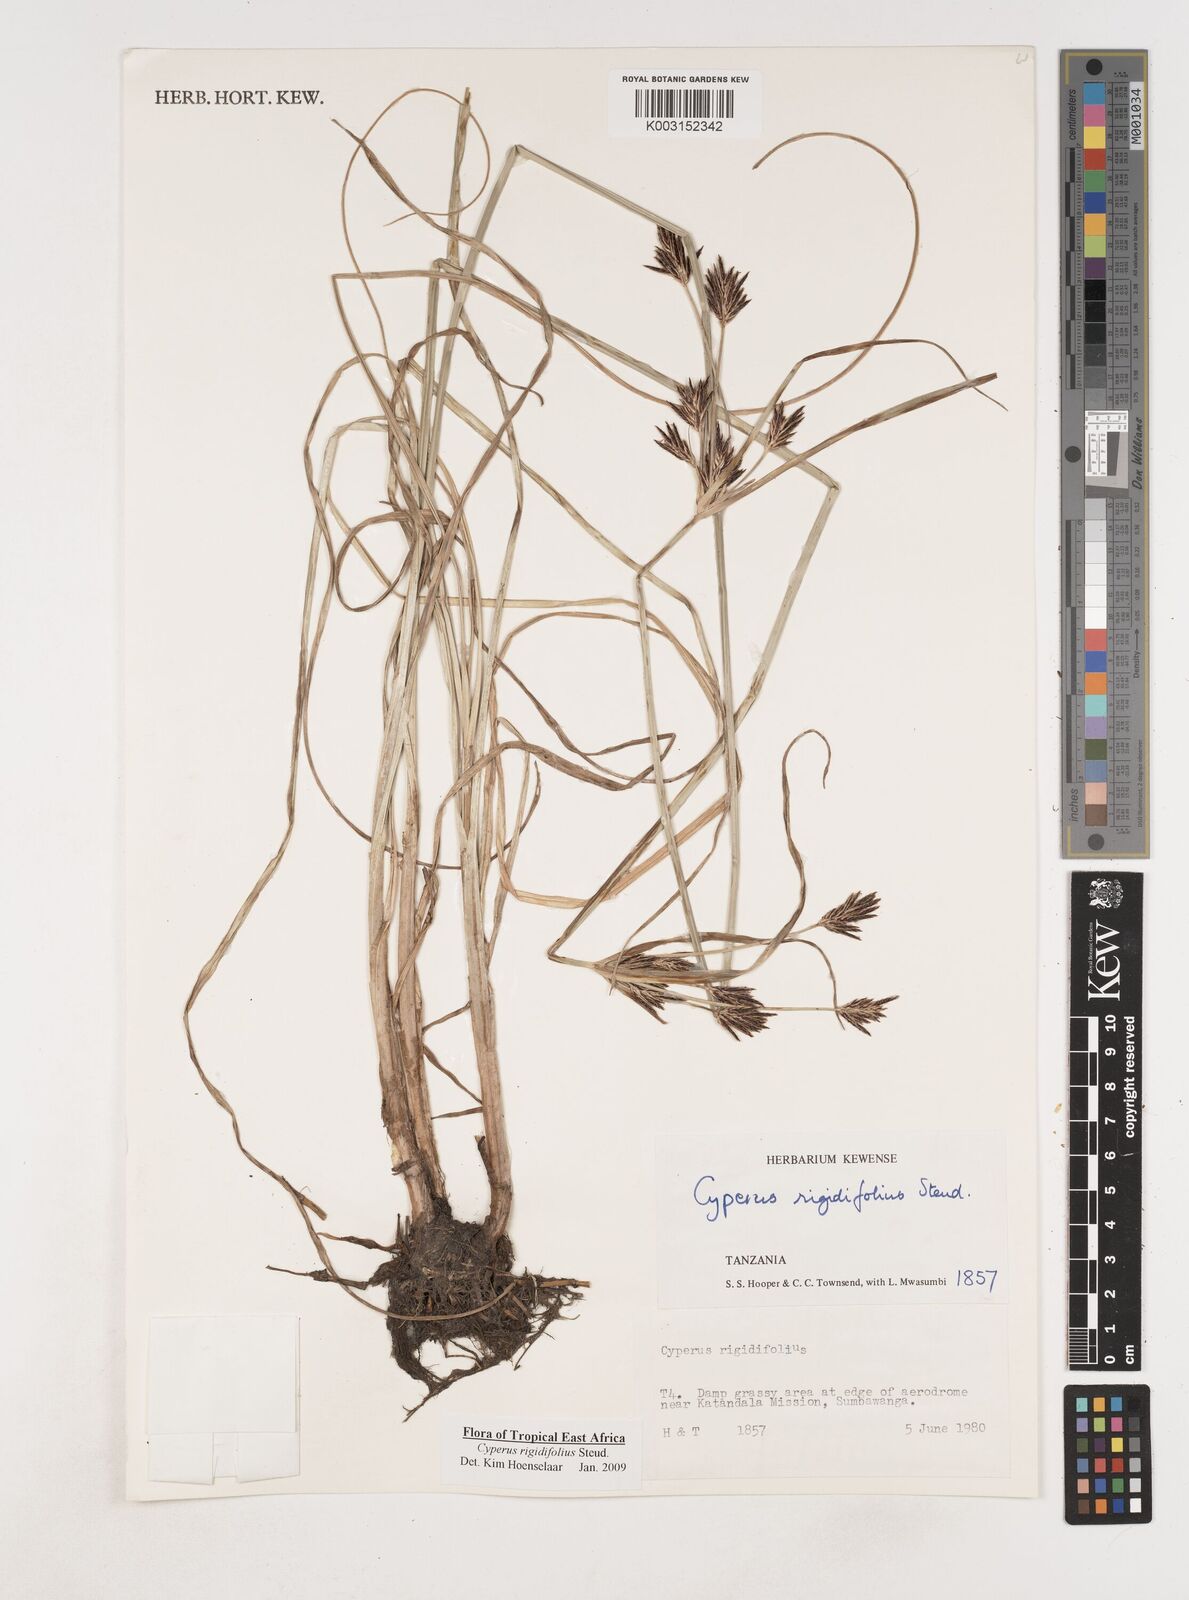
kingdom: Plantae
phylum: Tracheophyta
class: Liliopsida
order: Poales
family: Cyperaceae
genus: Cyperus
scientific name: Cyperus rigidifolius
